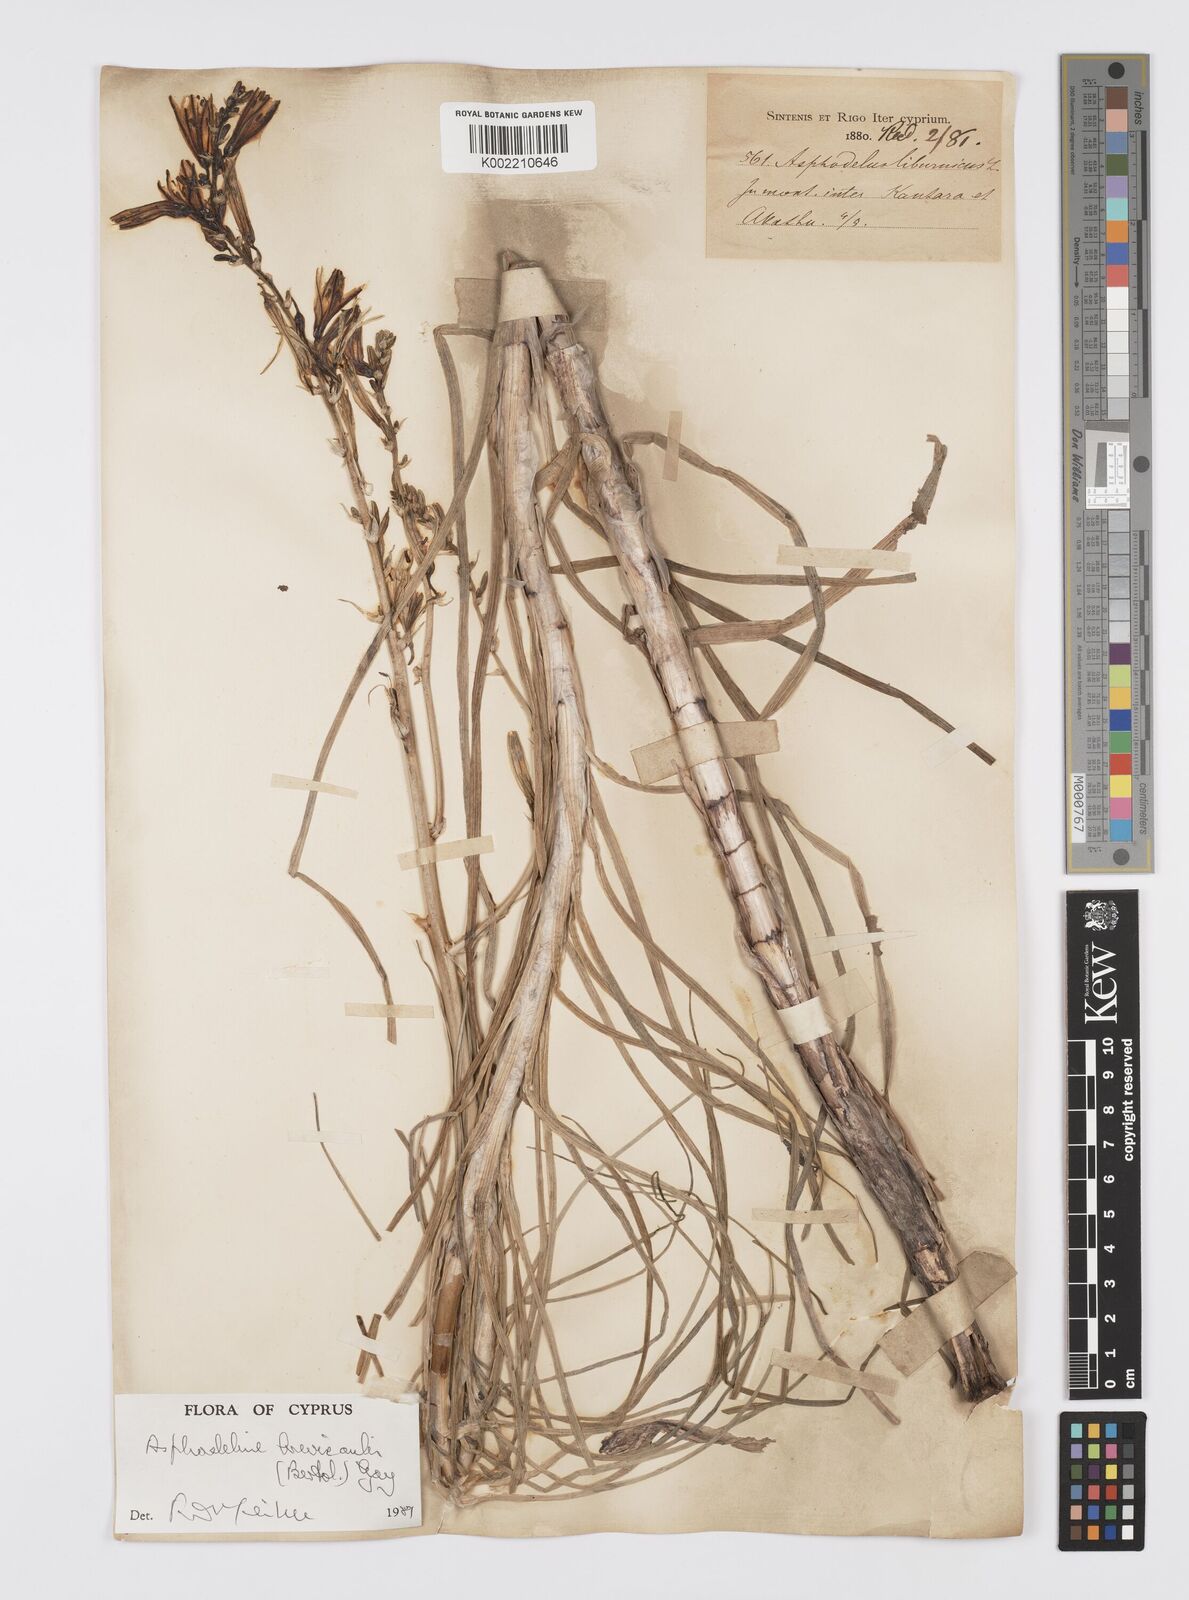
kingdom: Plantae
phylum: Tracheophyta
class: Liliopsida
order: Asparagales
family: Asphodelaceae
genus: Asphodeline
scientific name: Asphodeline brevicaulis
